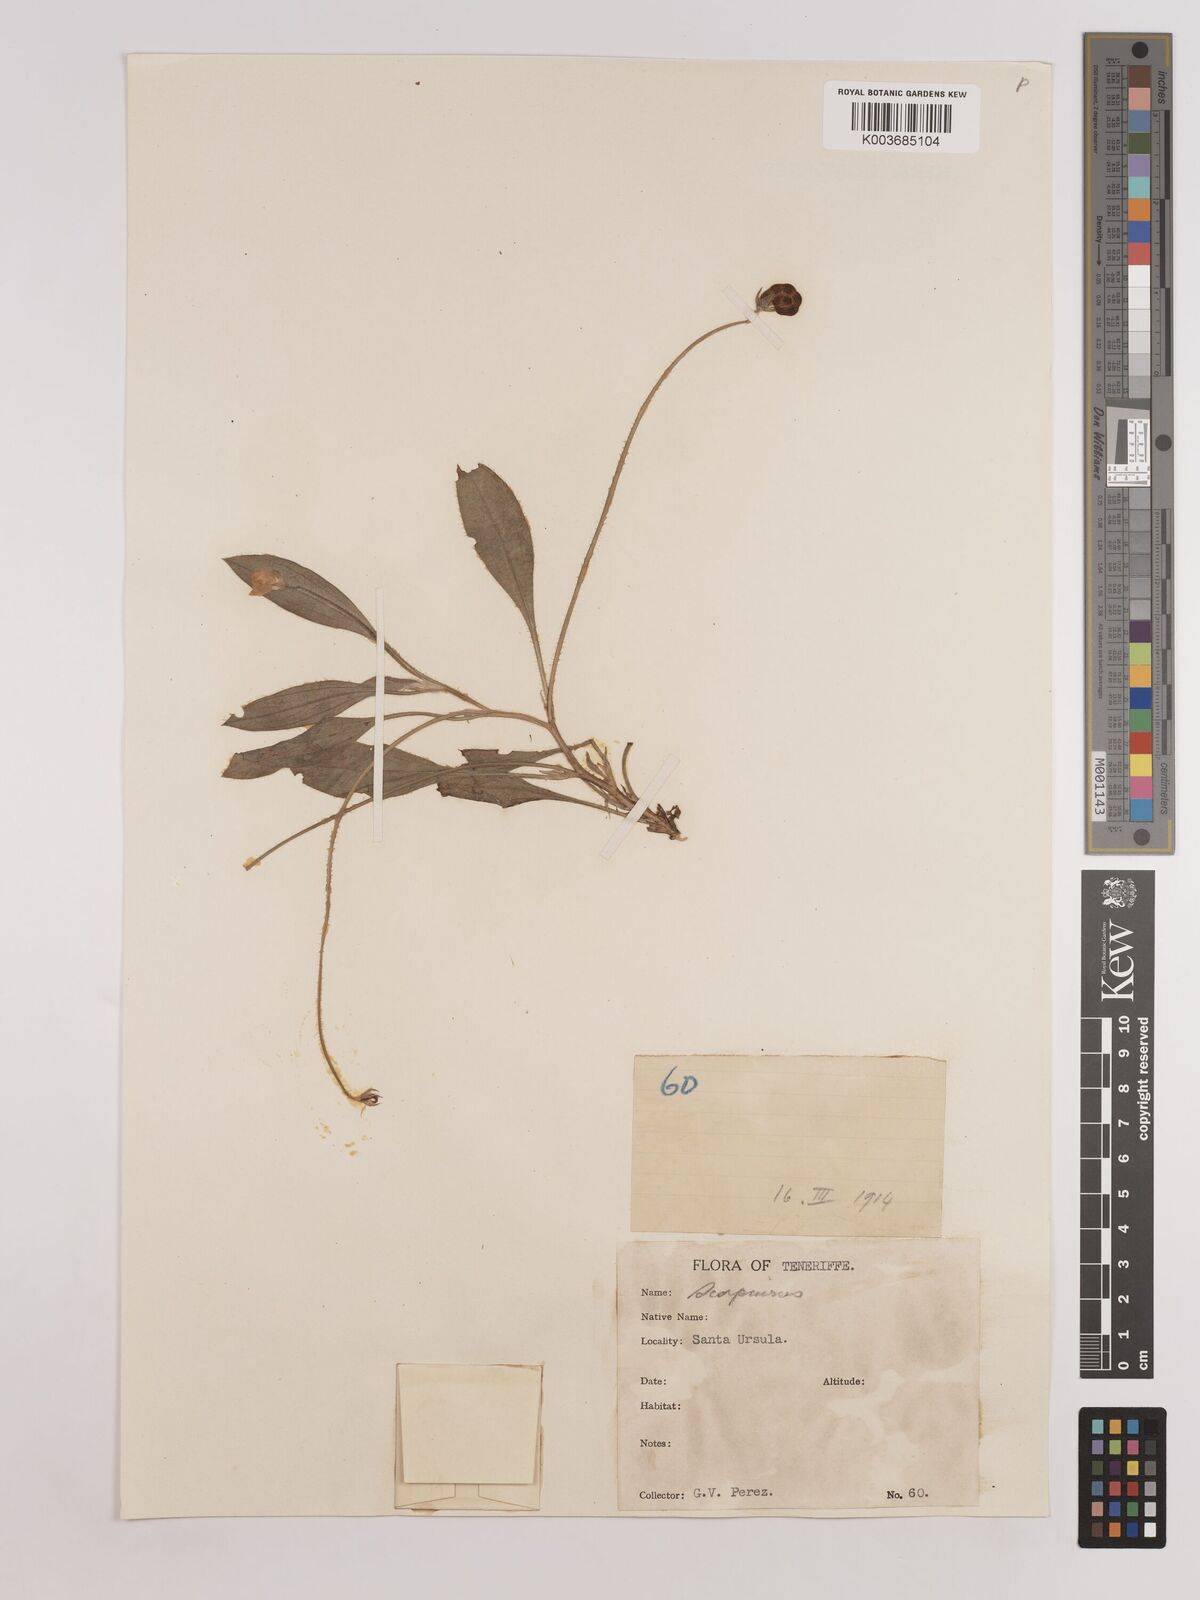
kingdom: Plantae
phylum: Tracheophyta
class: Magnoliopsida
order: Fabales
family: Fabaceae
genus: Scorpiurus
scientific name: Scorpiurus vermiculatus
